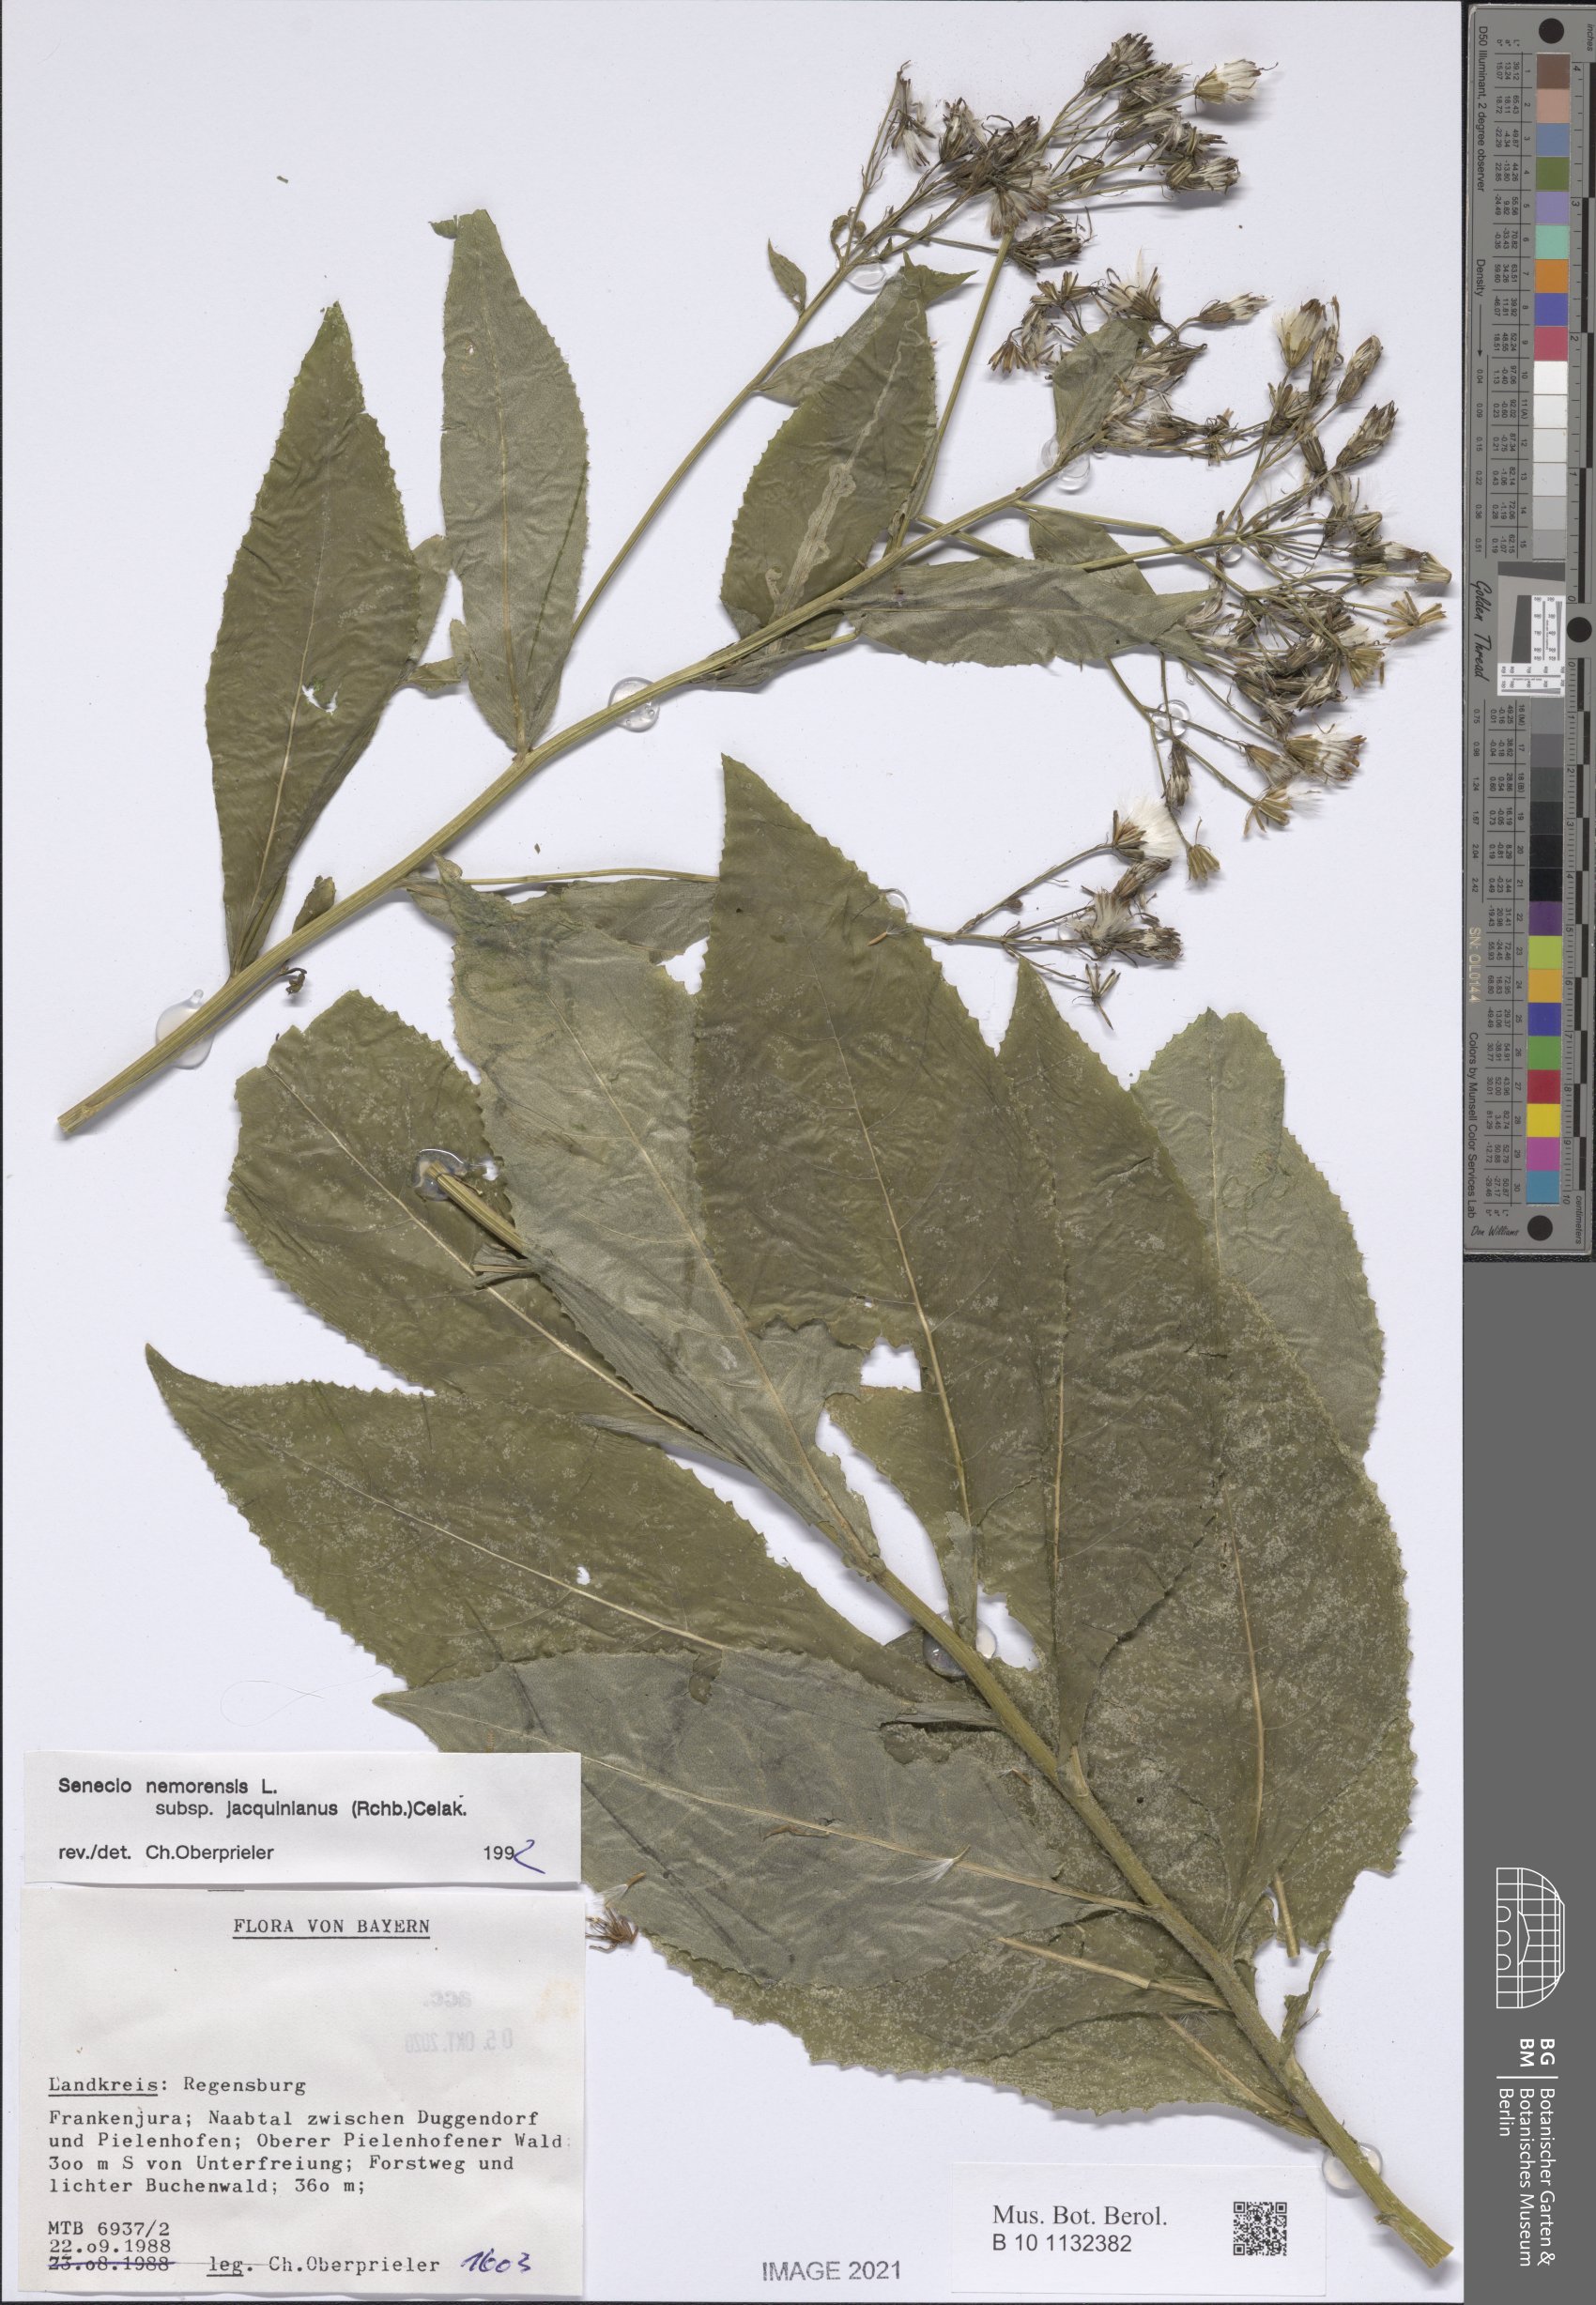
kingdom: Plantae
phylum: Tracheophyta
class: Magnoliopsida
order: Asterales
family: Asteraceae
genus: Senecio
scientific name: Senecio germanicus
